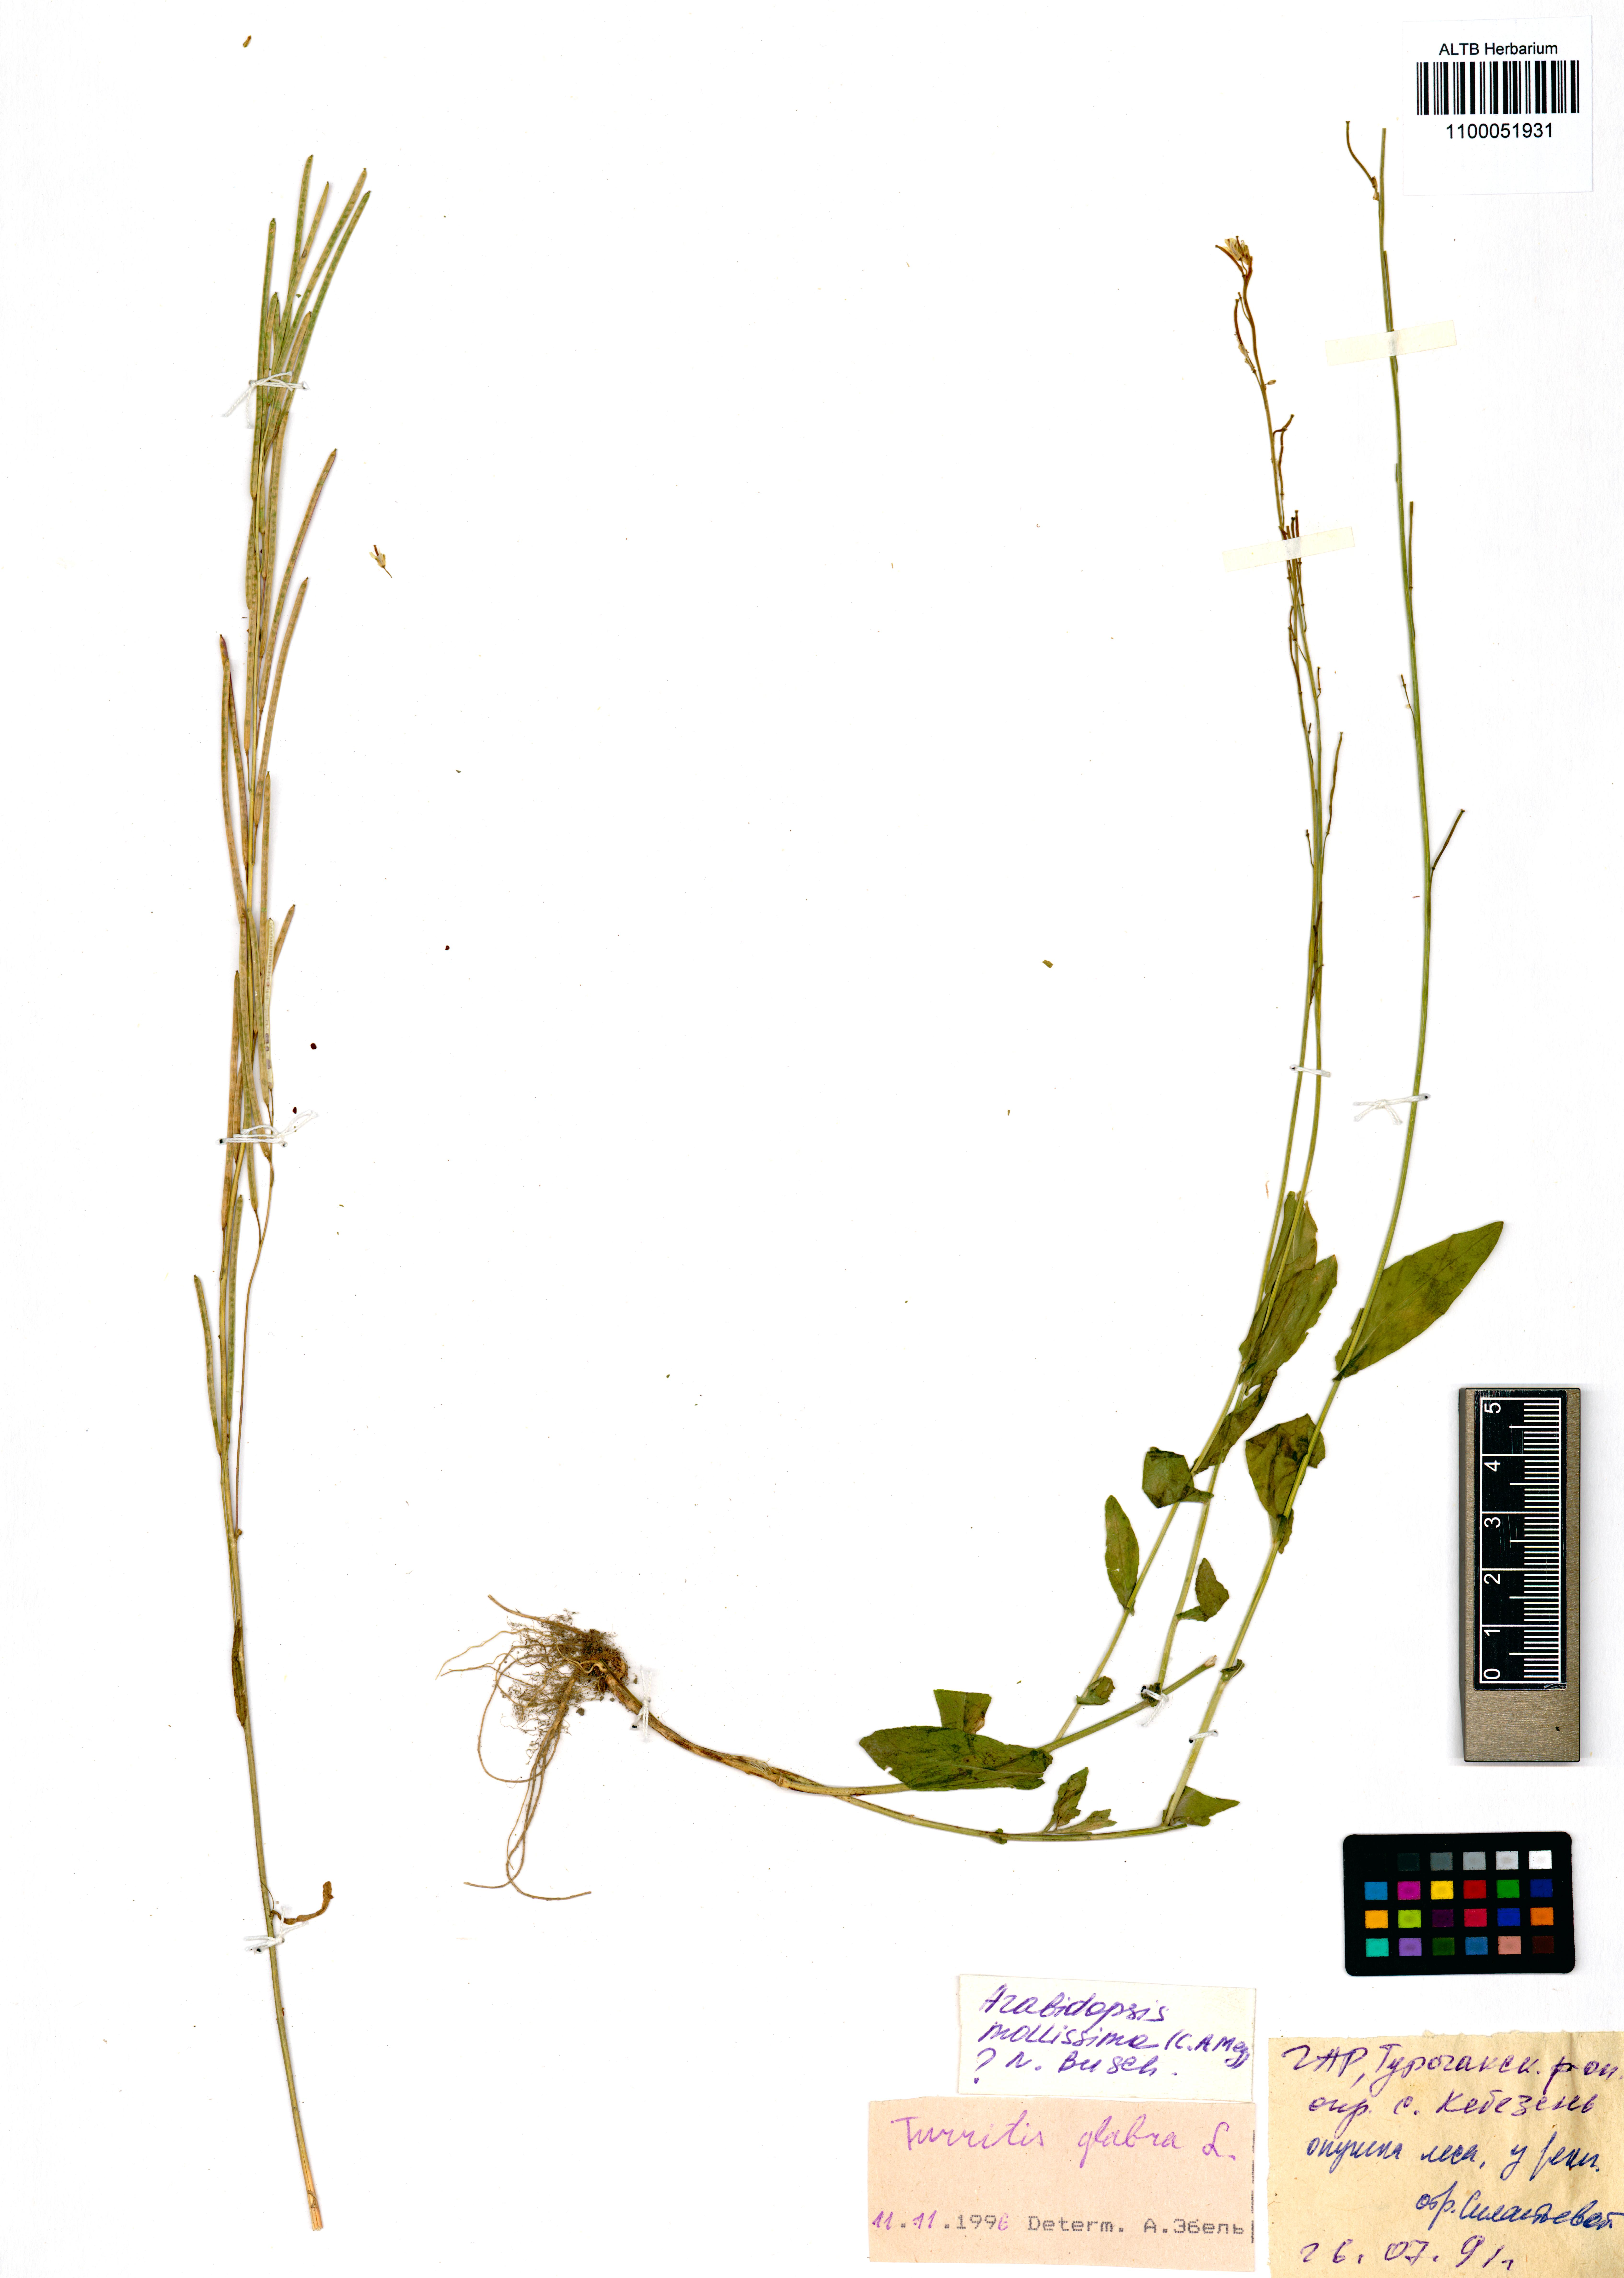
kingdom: Plantae
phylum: Tracheophyta
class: Magnoliopsida
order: Brassicales
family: Brassicaceae
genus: Turritis
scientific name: Turritis glabra
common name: Tower rockcress
